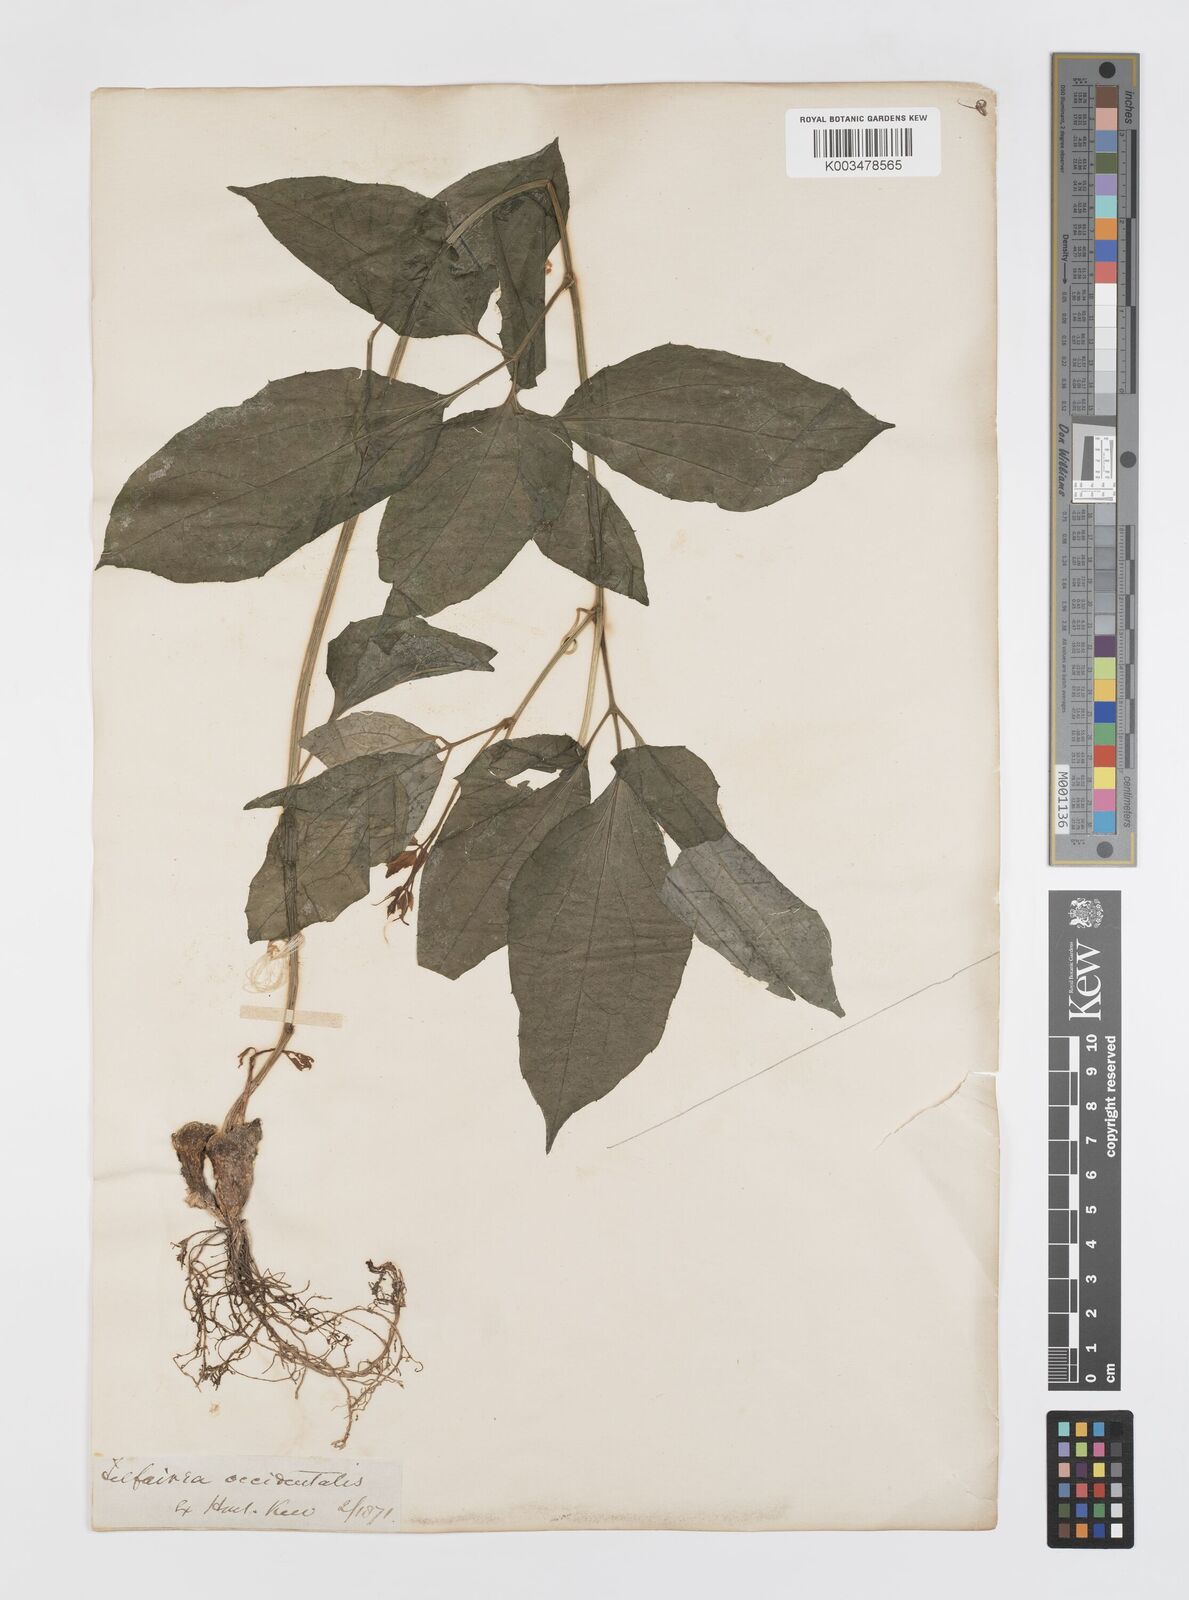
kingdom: Plantae
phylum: Tracheophyta
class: Magnoliopsida
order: Cucurbitales
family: Cucurbitaceae
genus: Telfairia
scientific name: Telfairia occidentalis
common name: Oysternut
